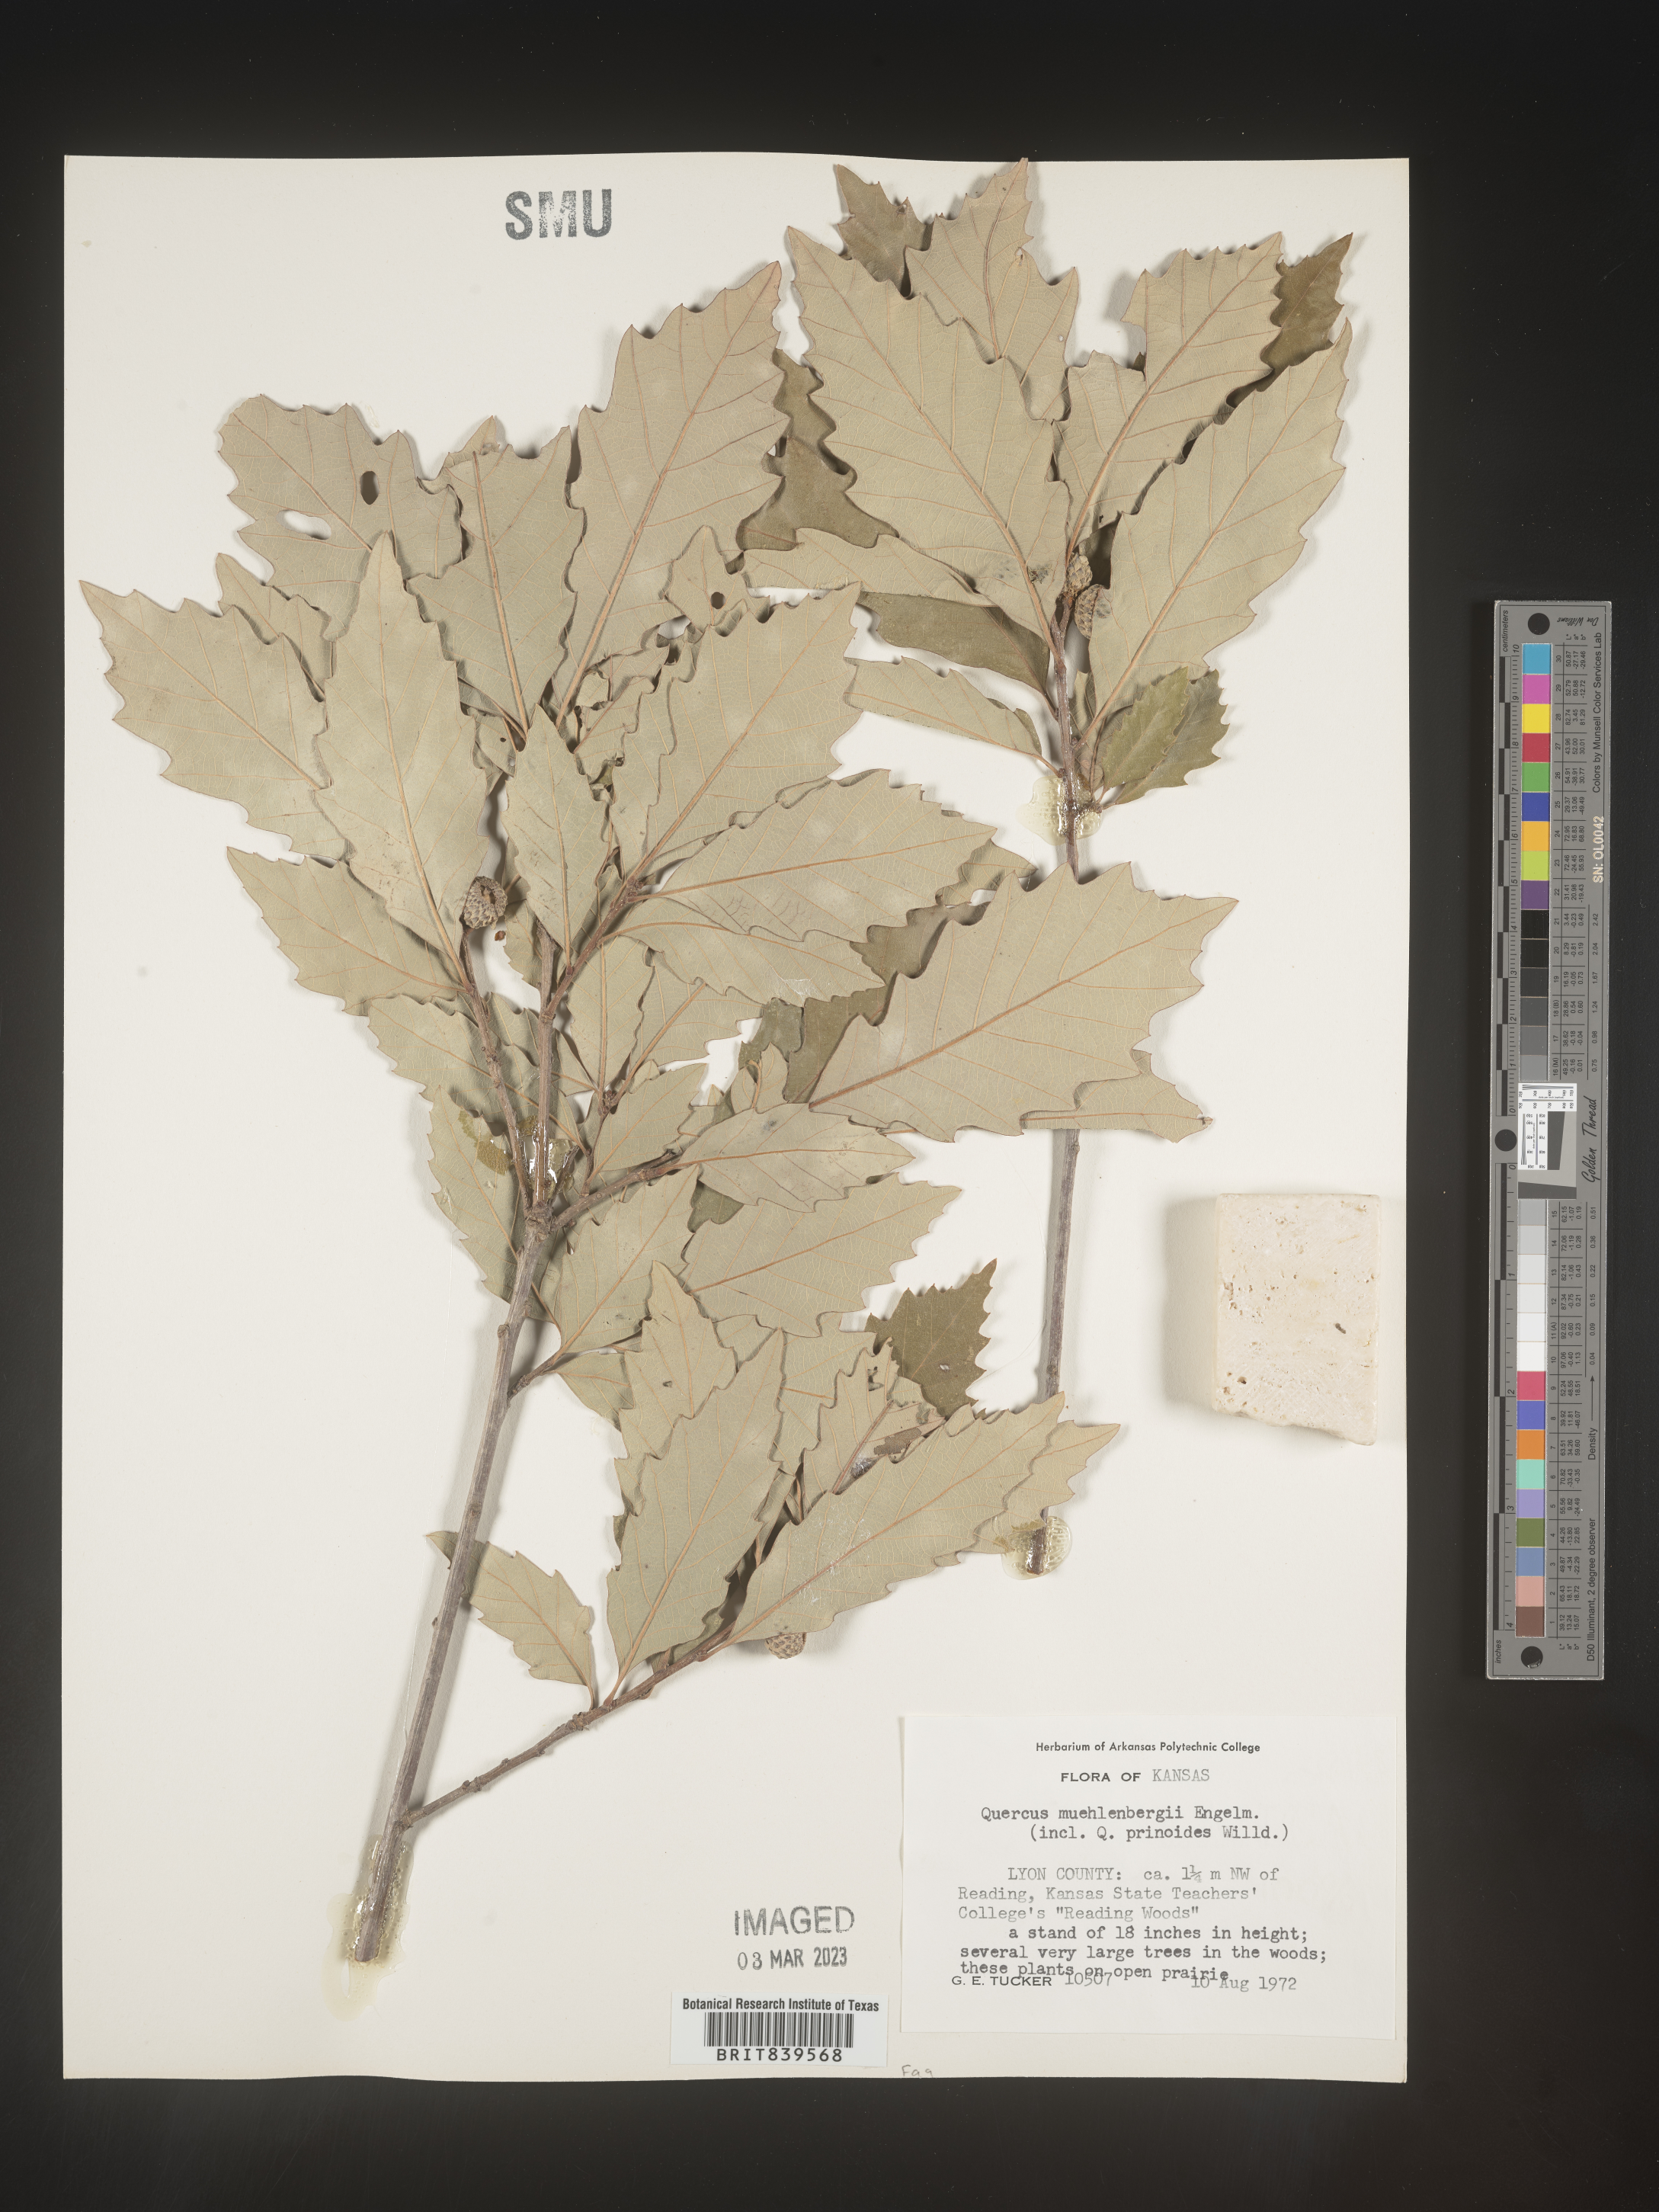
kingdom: Plantae
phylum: Tracheophyta
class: Magnoliopsida
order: Fagales
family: Fagaceae
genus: Quercus
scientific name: Quercus muehlenbergii
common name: Chinkapin oak
